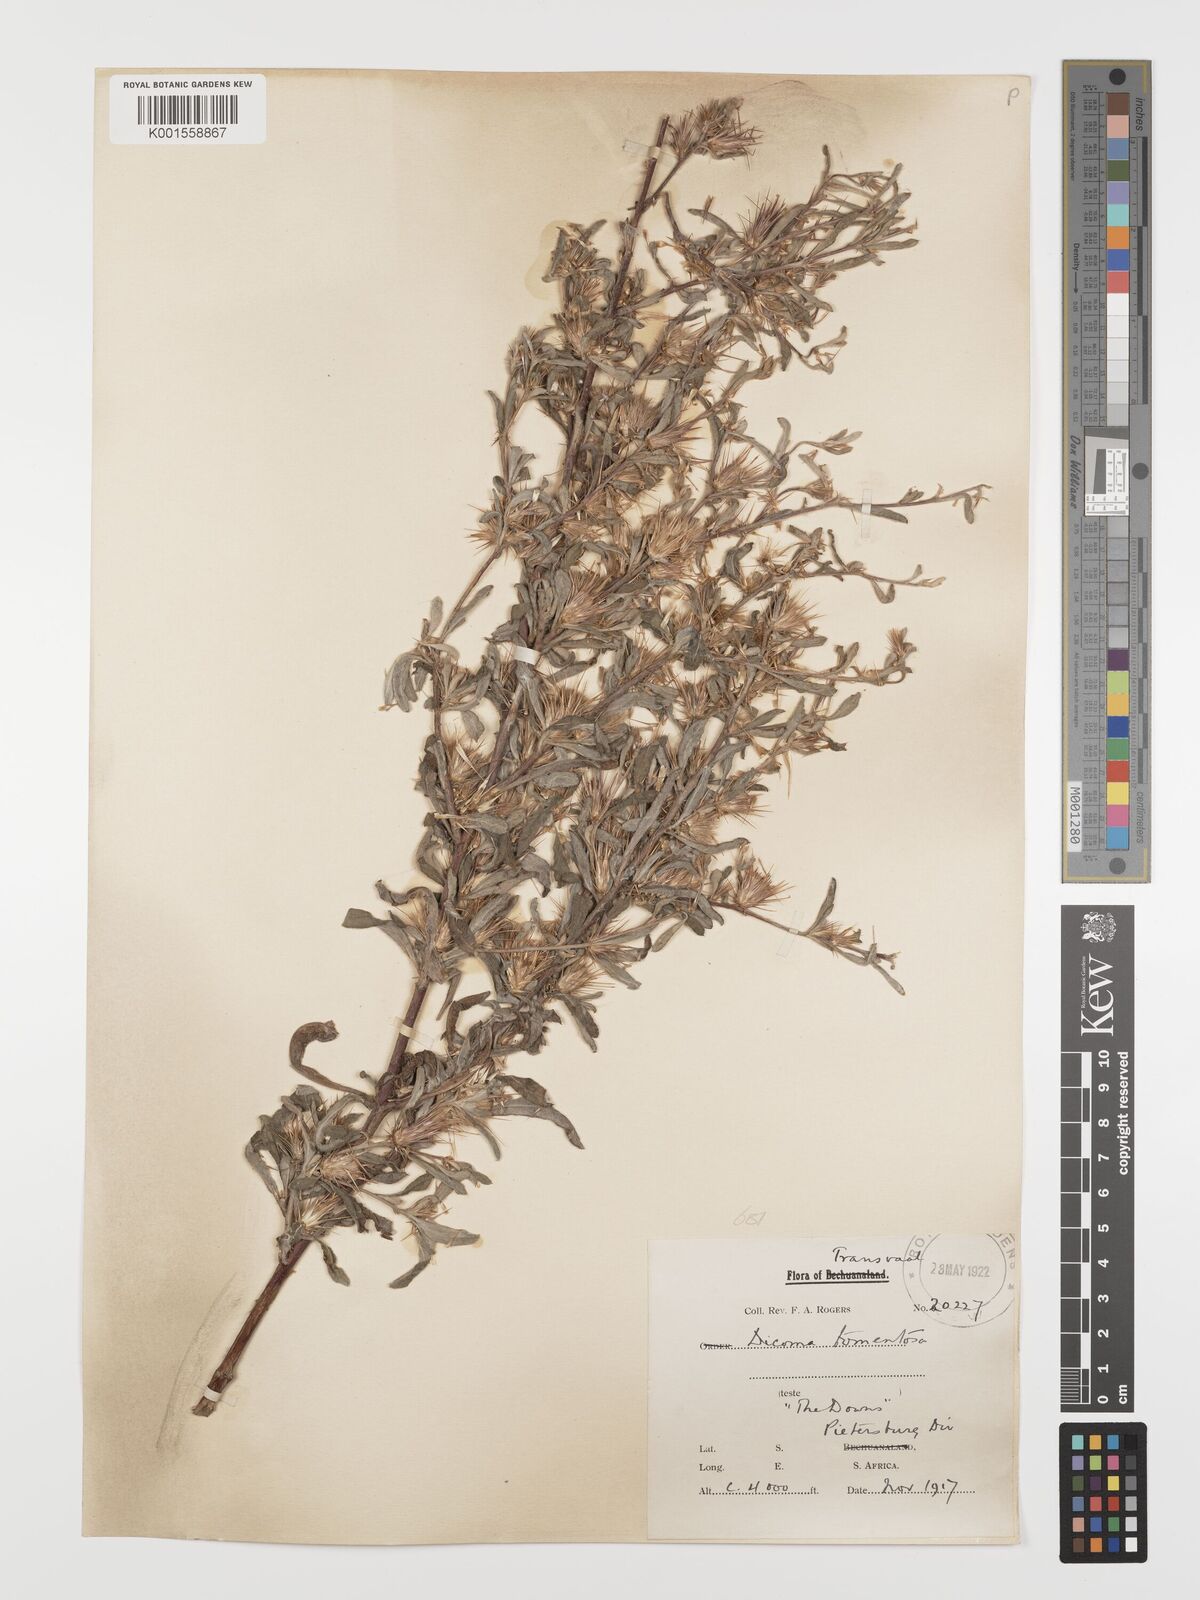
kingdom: Plantae
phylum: Tracheophyta
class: Magnoliopsida
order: Asterales
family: Asteraceae
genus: Dicoma
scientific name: Dicoma tomentosa
